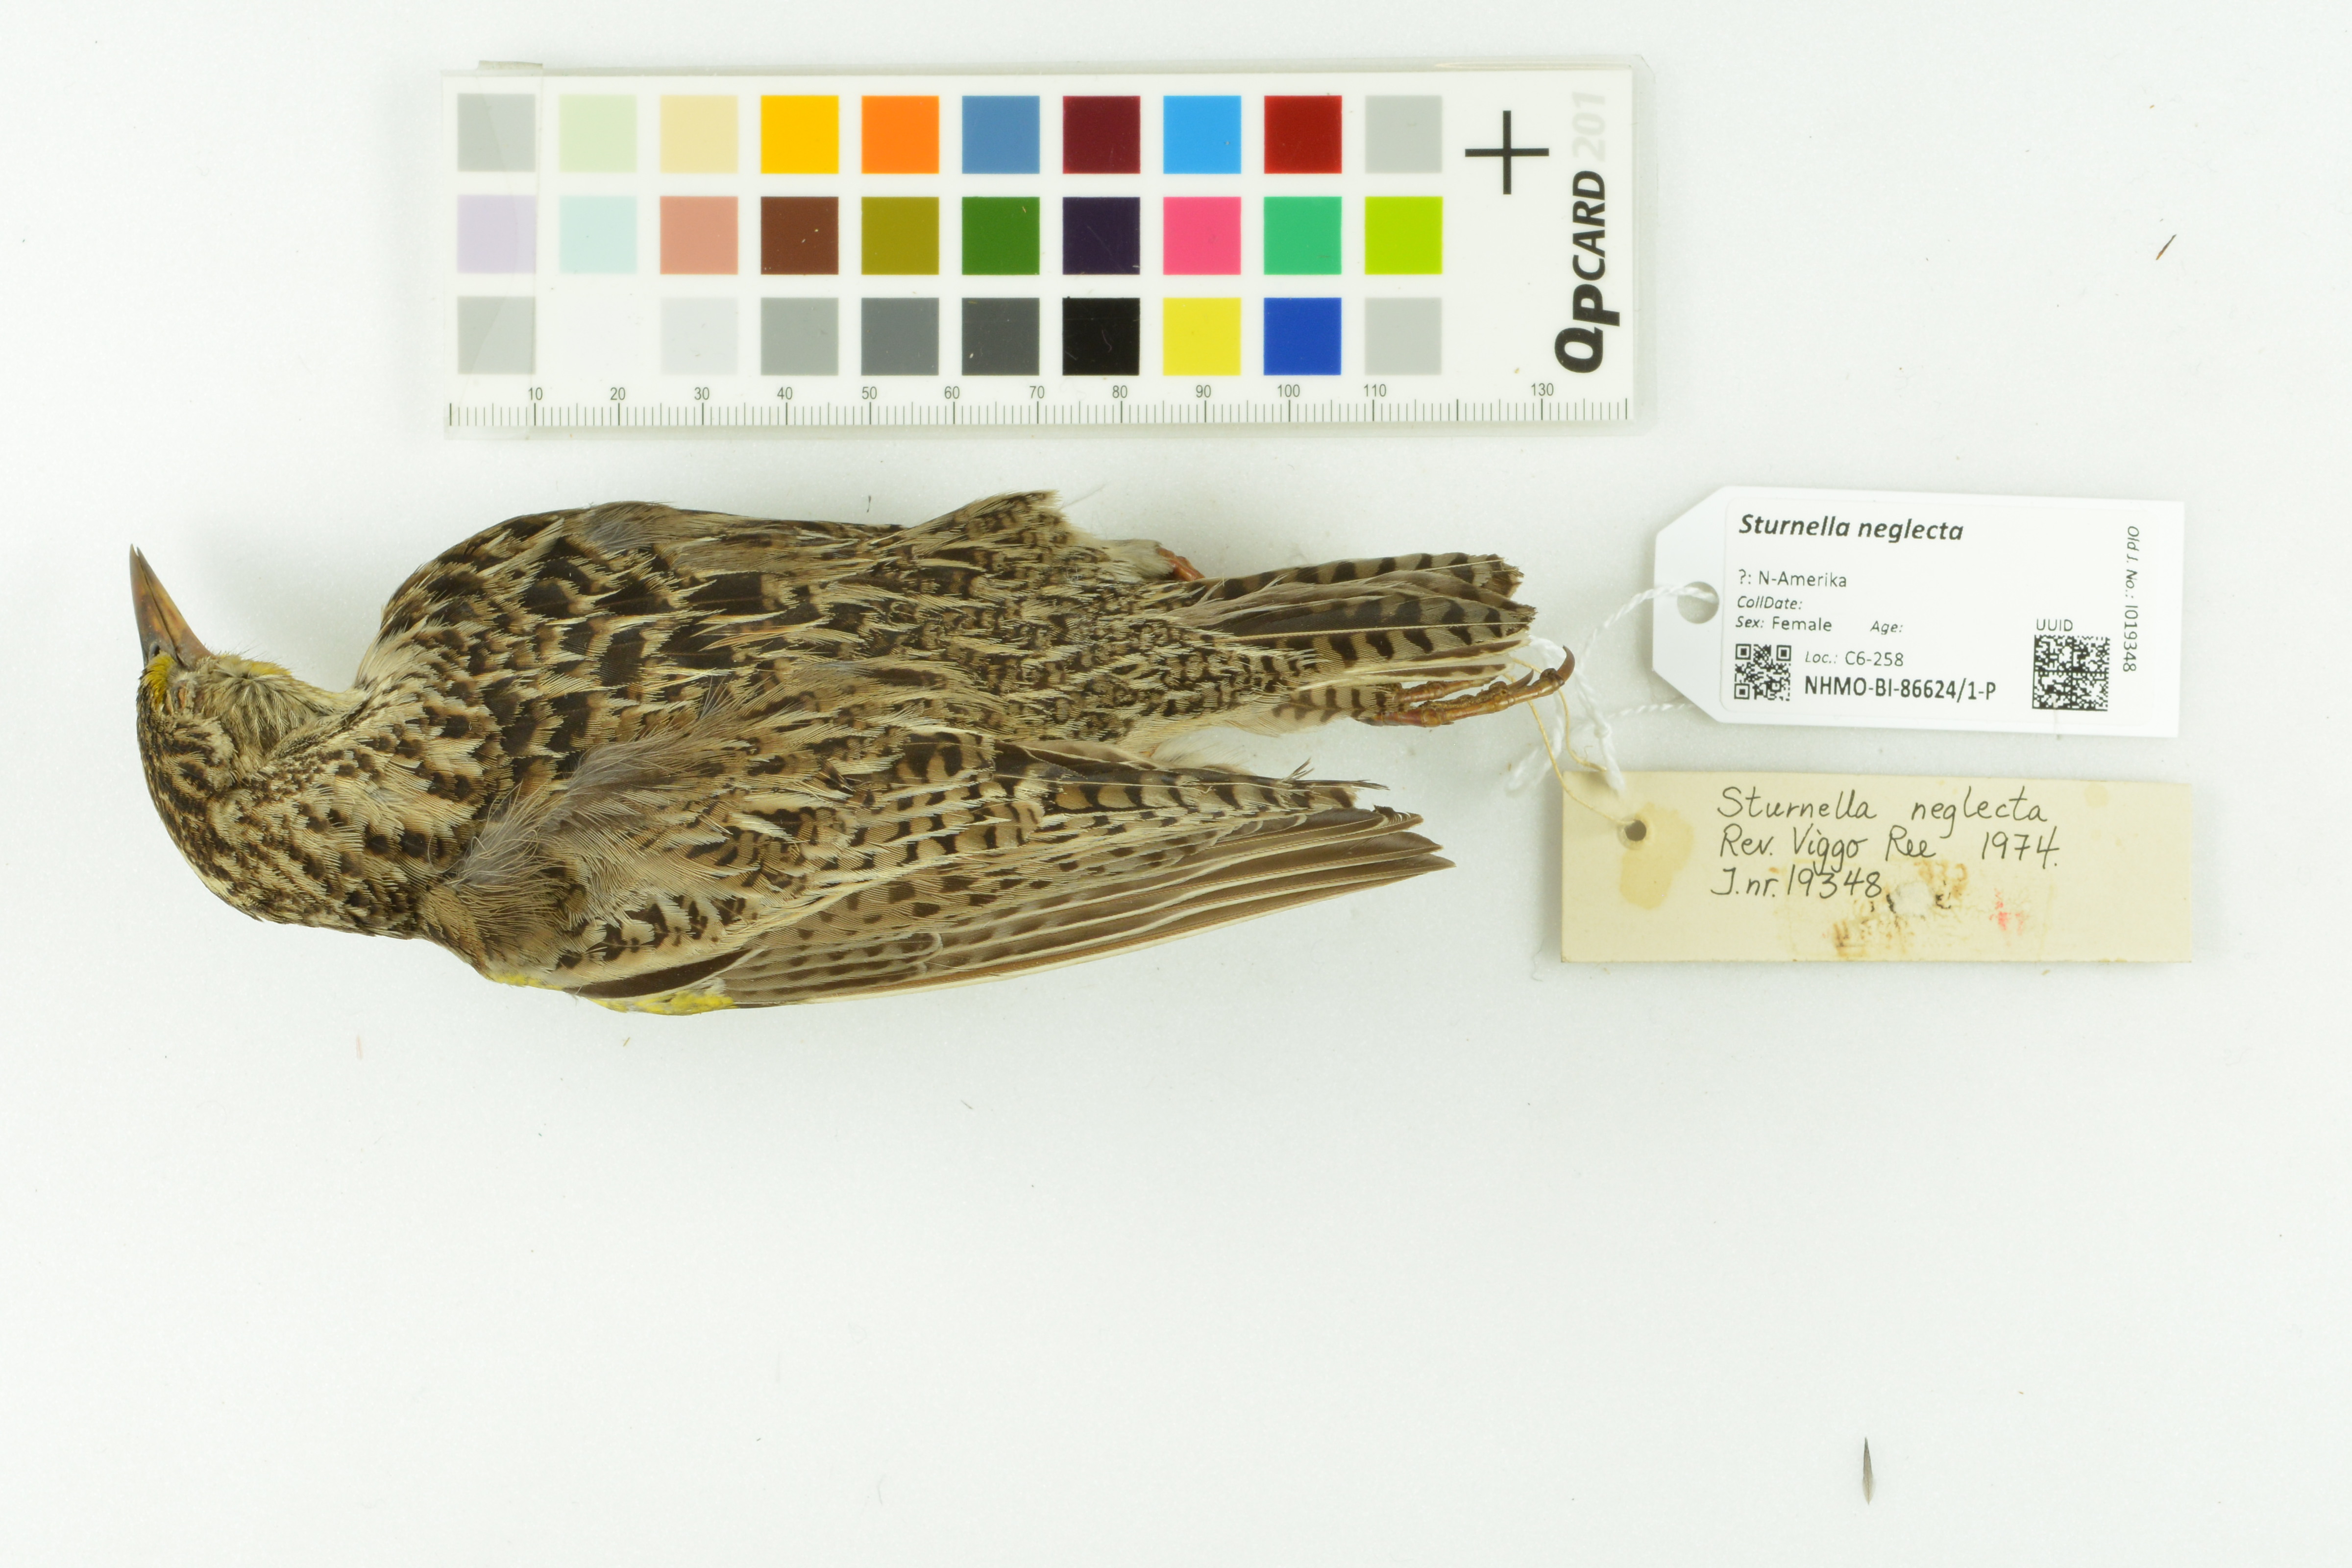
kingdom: Animalia
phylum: Chordata
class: Aves
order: Passeriformes
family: Icteridae
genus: Sturnella
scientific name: Sturnella neglecta
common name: Western meadowlark
